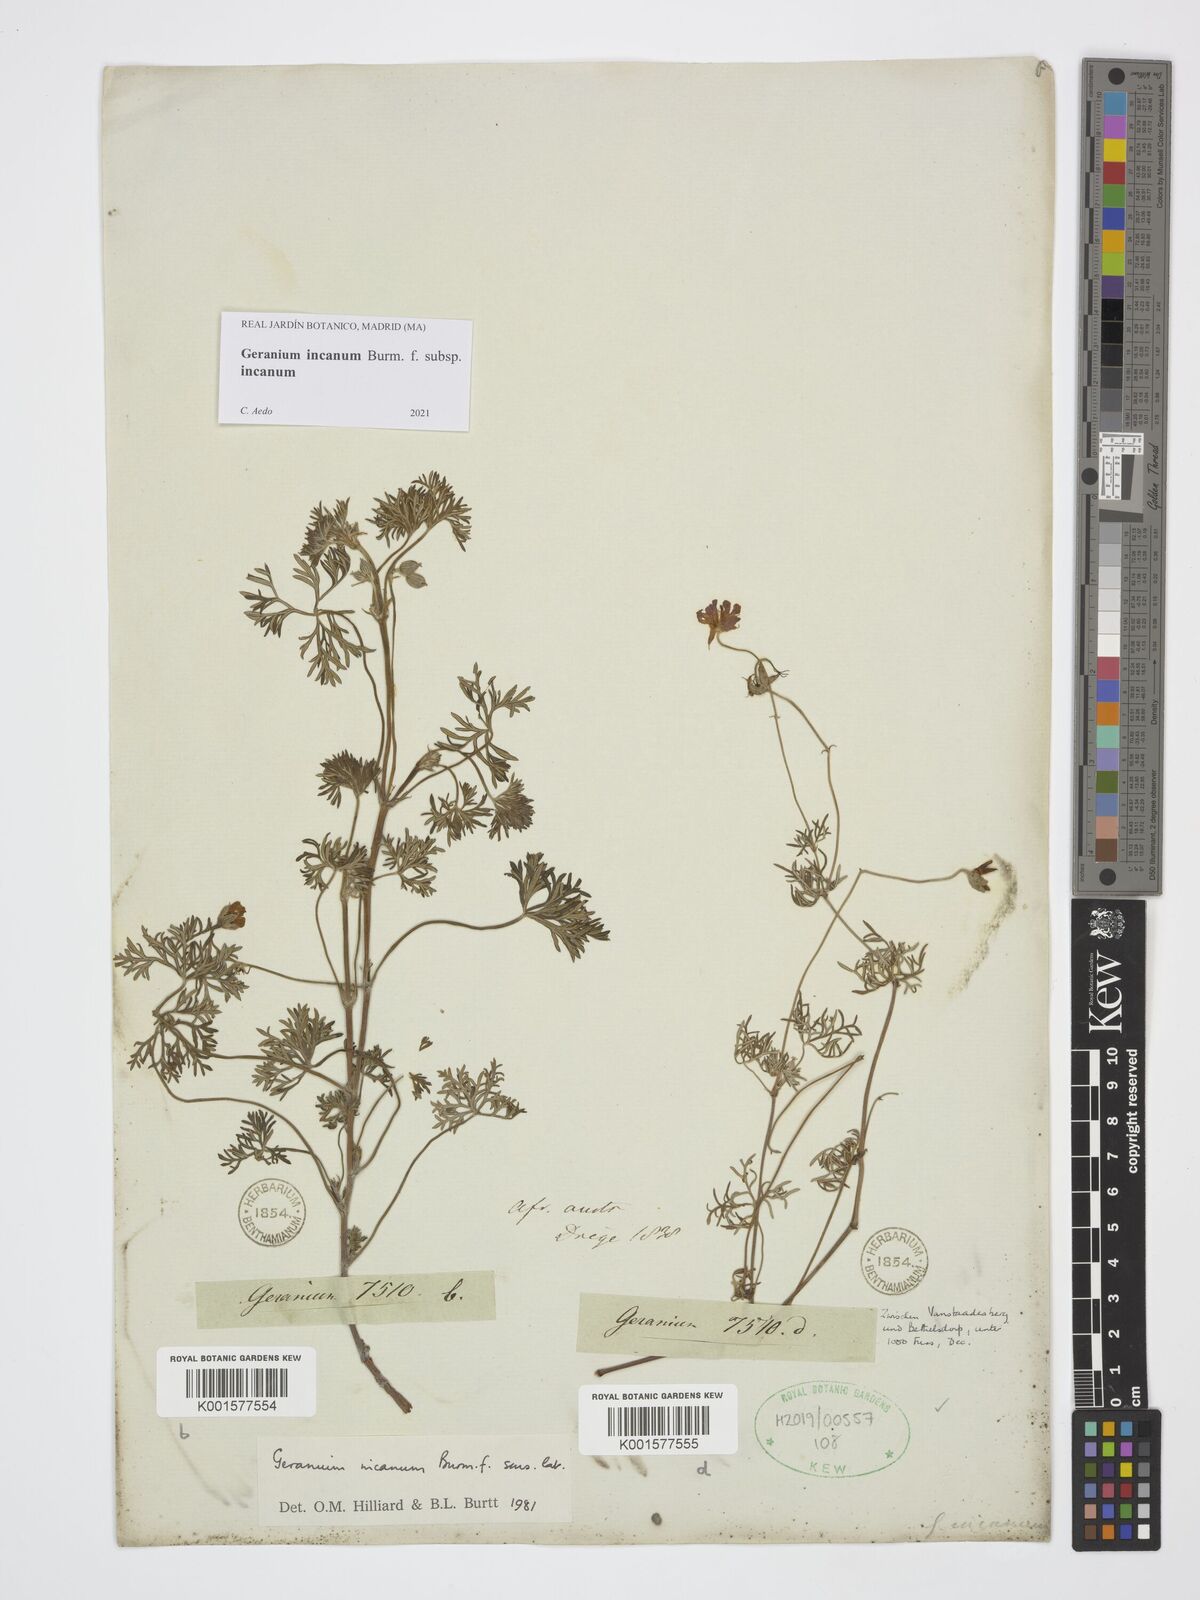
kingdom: Plantae
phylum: Tracheophyta
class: Magnoliopsida
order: Geraniales
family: Geraniaceae
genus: Geranium
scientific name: Geranium incanum
